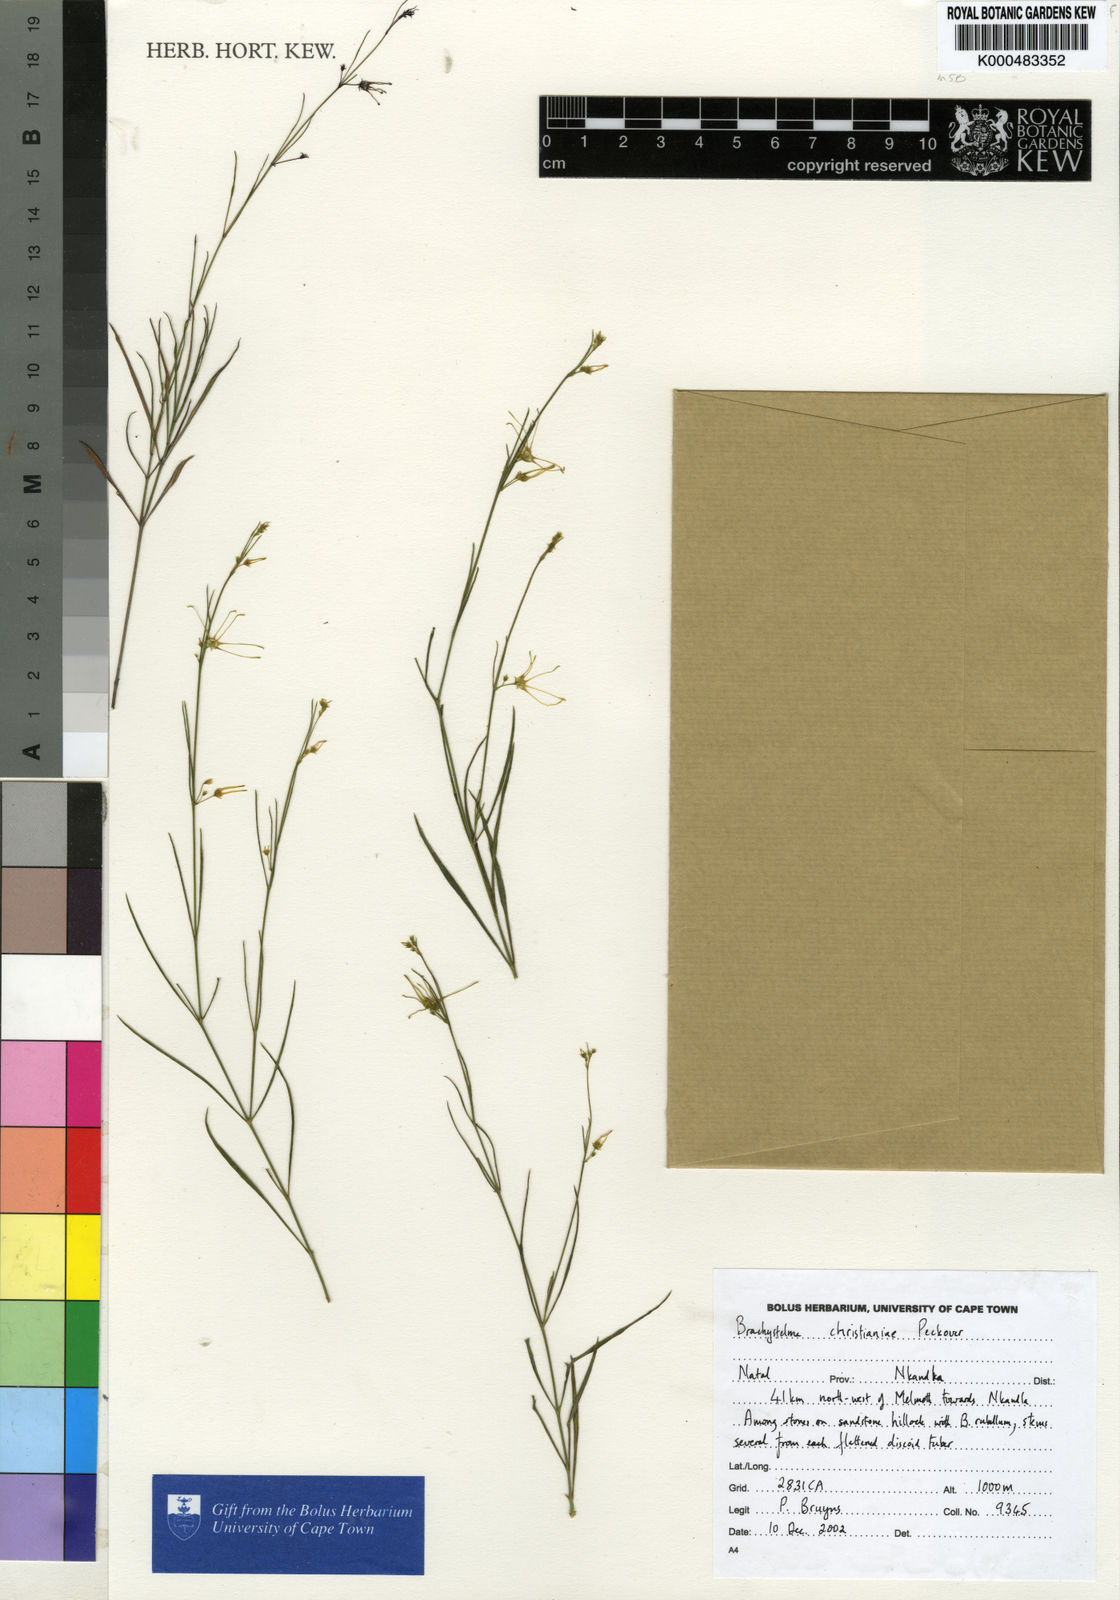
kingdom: Plantae
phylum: Tracheophyta
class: Magnoliopsida
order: Gentianales
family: Apocynaceae
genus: Ceropegia
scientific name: Ceropegia christianeae
